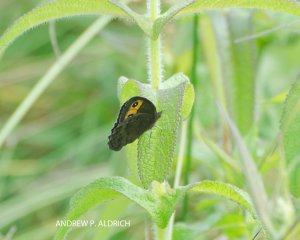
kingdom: Animalia
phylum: Arthropoda
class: Insecta
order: Lepidoptera
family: Nymphalidae
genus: Cercyonis
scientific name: Cercyonis pegala
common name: Common Wood-Nymph
